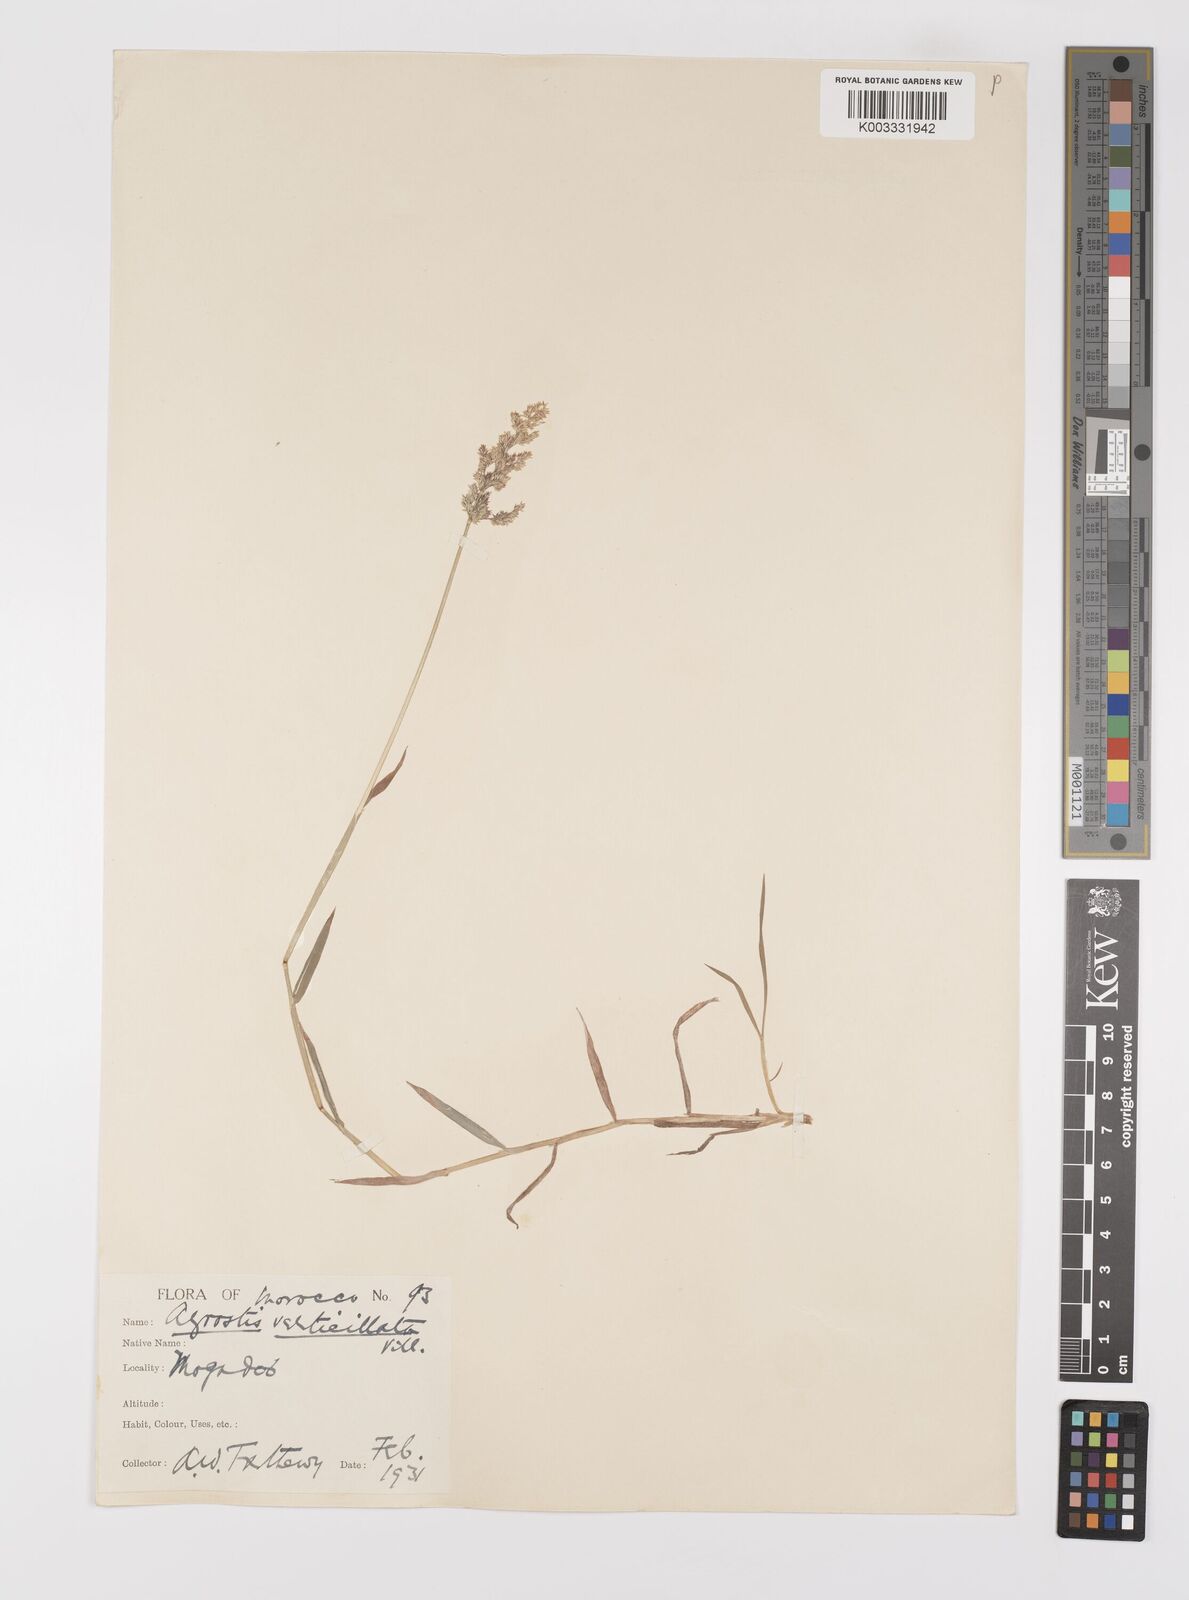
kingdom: Plantae
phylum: Tracheophyta
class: Liliopsida
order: Poales
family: Poaceae
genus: Polypogon
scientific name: Polypogon viridis
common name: Water bent
